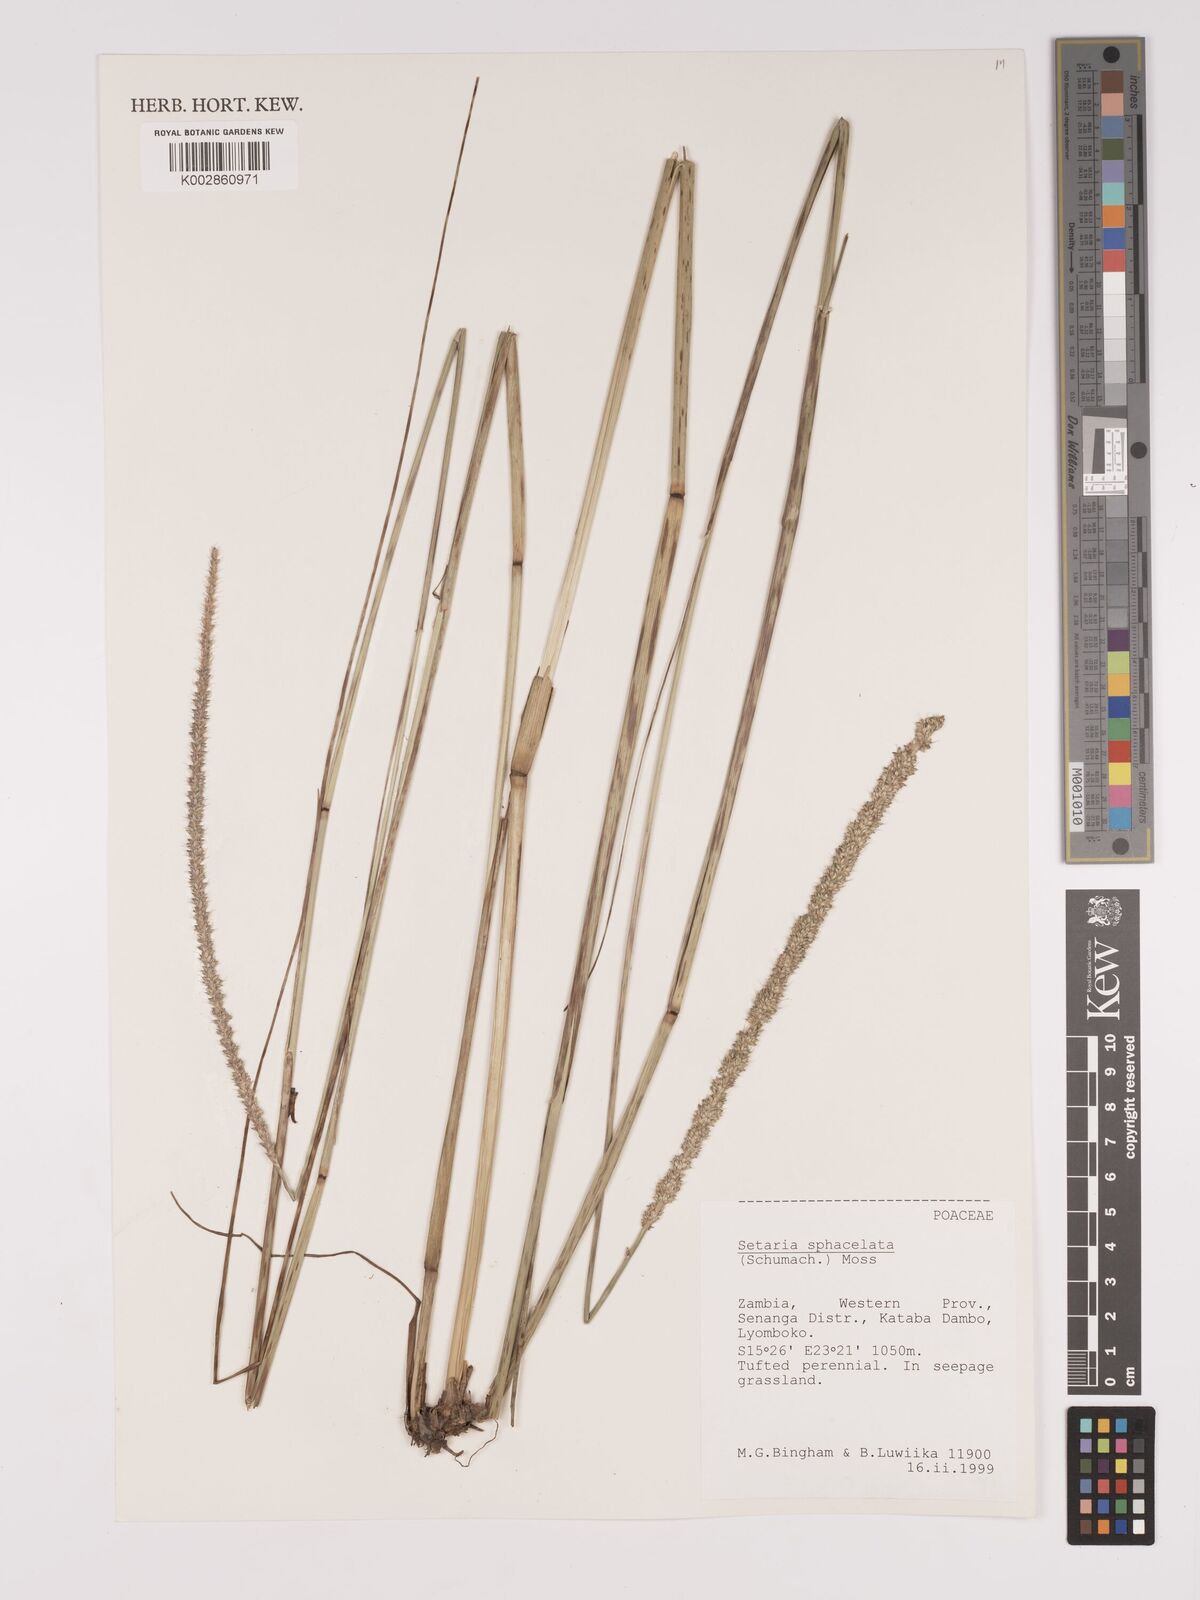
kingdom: Plantae
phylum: Tracheophyta
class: Liliopsida
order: Poales
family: Poaceae
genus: Setaria
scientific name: Setaria
